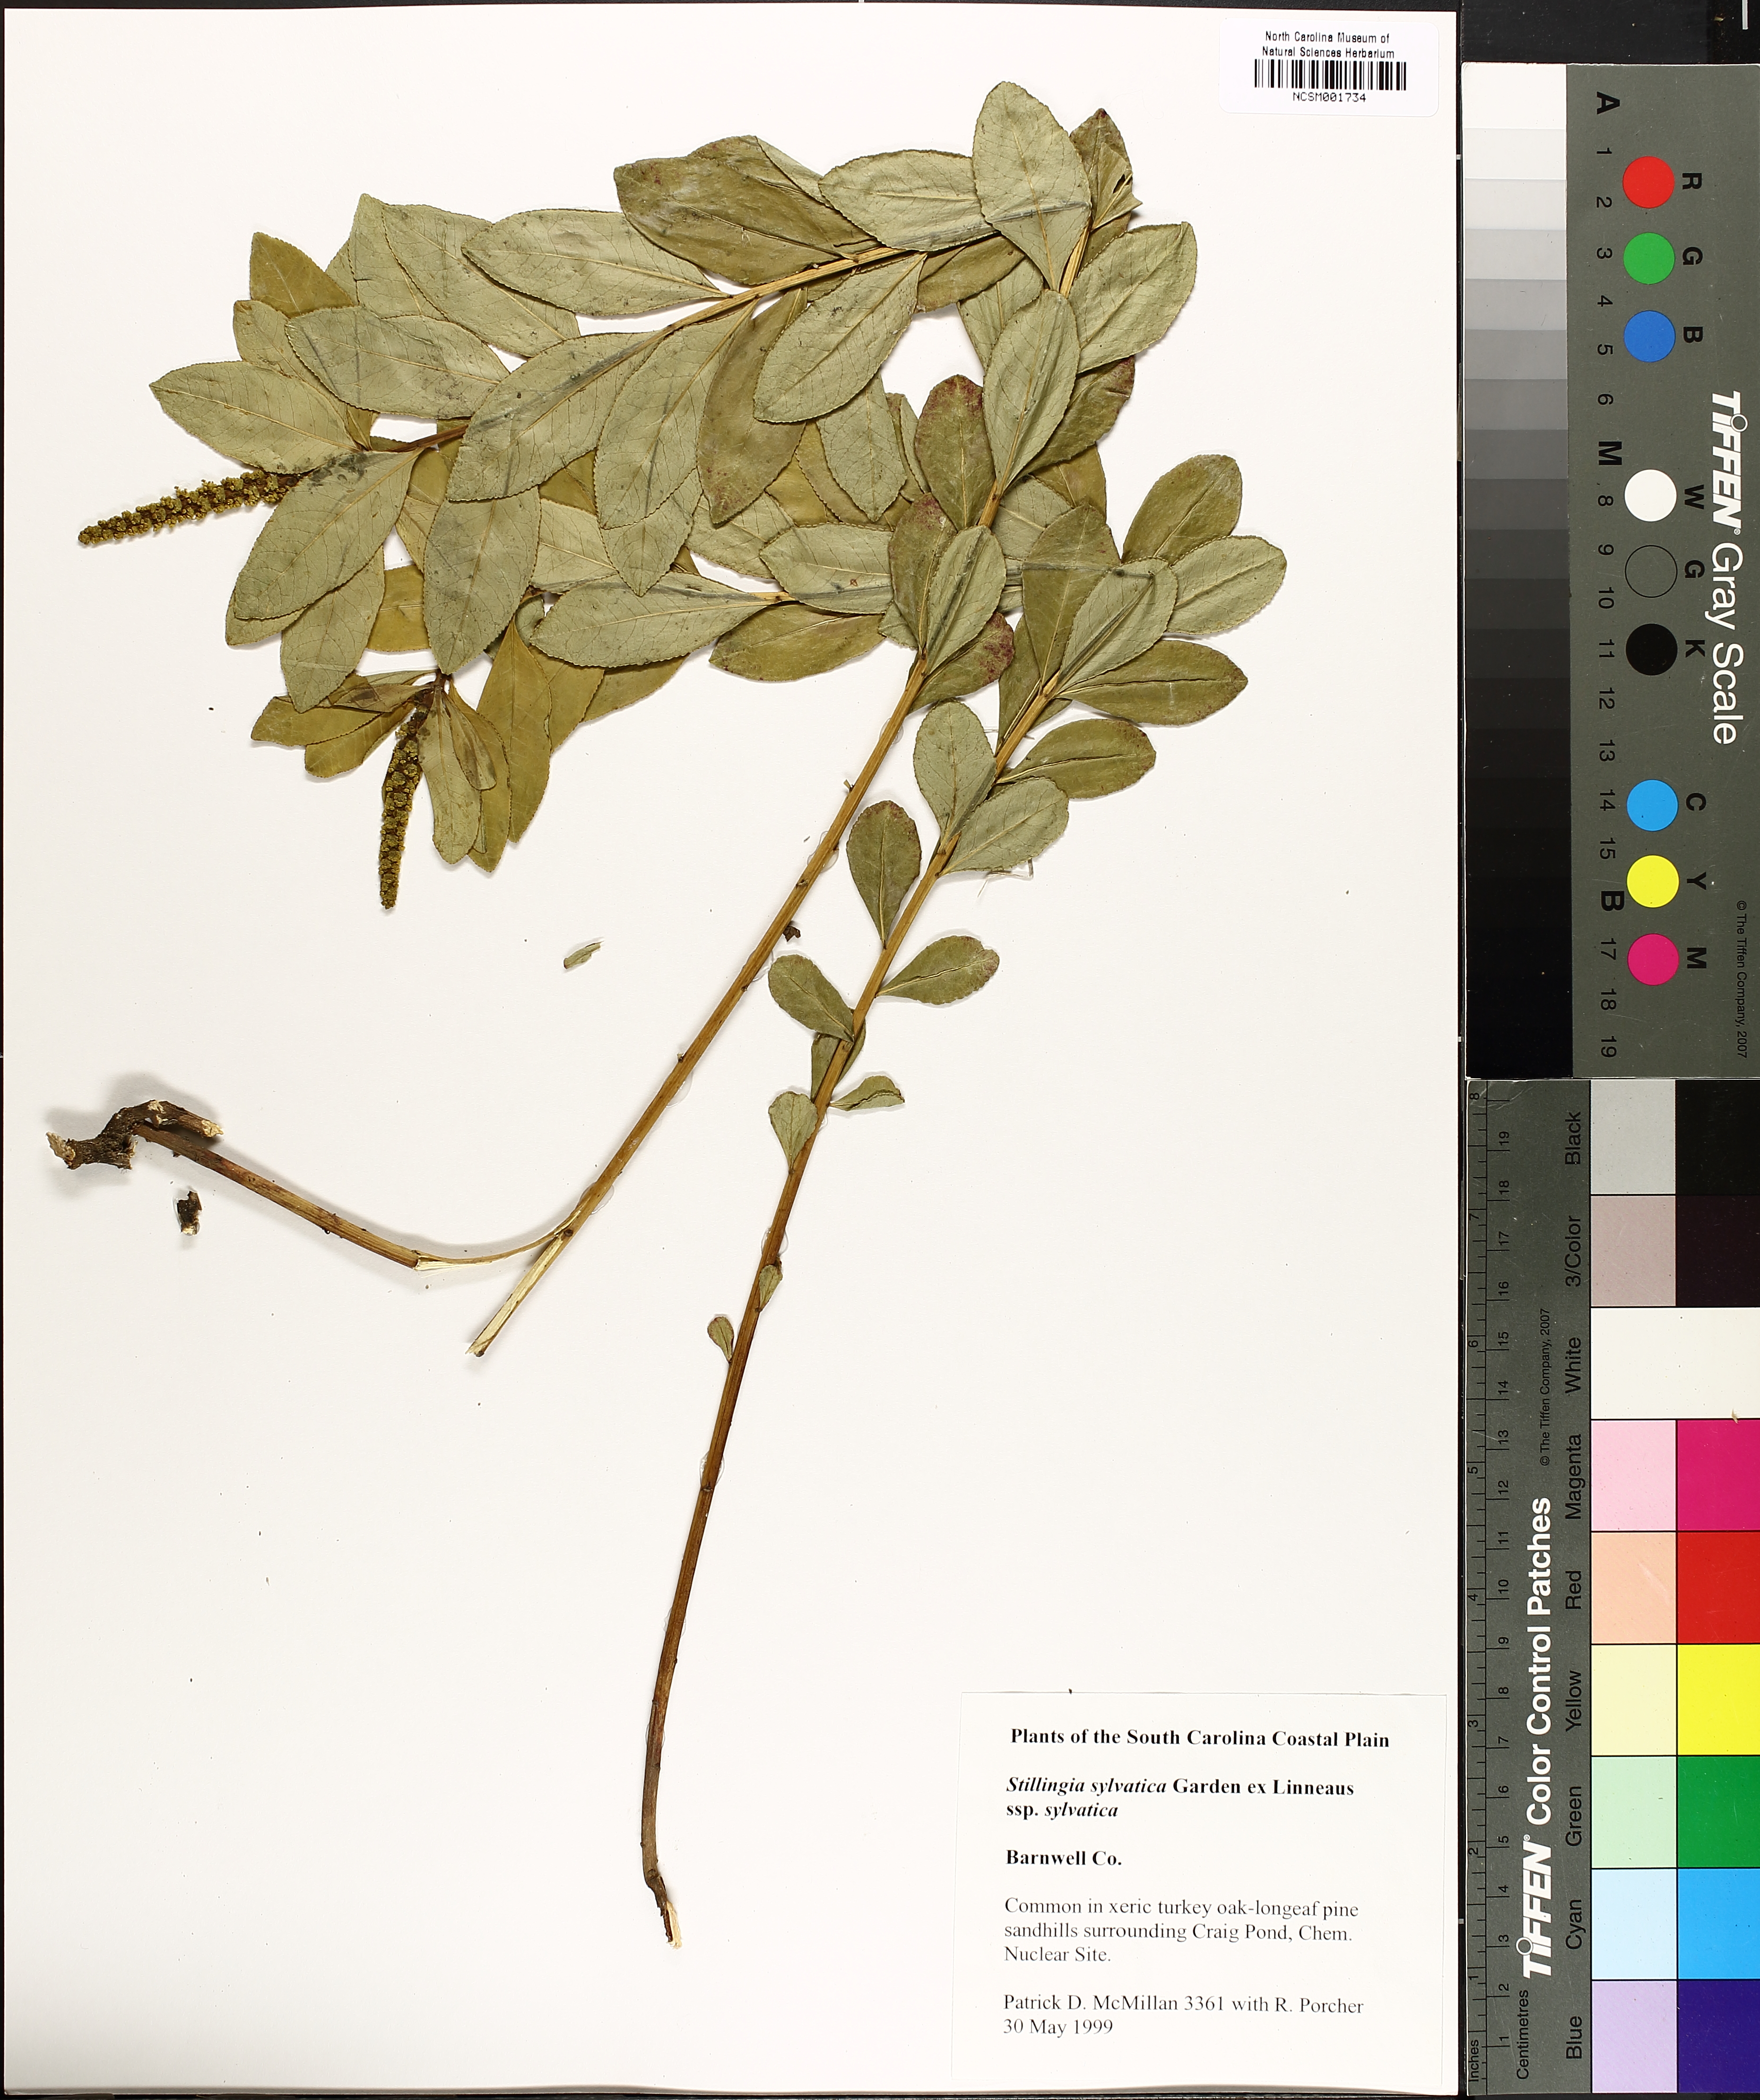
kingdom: Plantae
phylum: Tracheophyta
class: Magnoliopsida
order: Malpighiales
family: Euphorbiaceae
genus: Stillingia
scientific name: Stillingia sylvatica
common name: Queen's-delight
